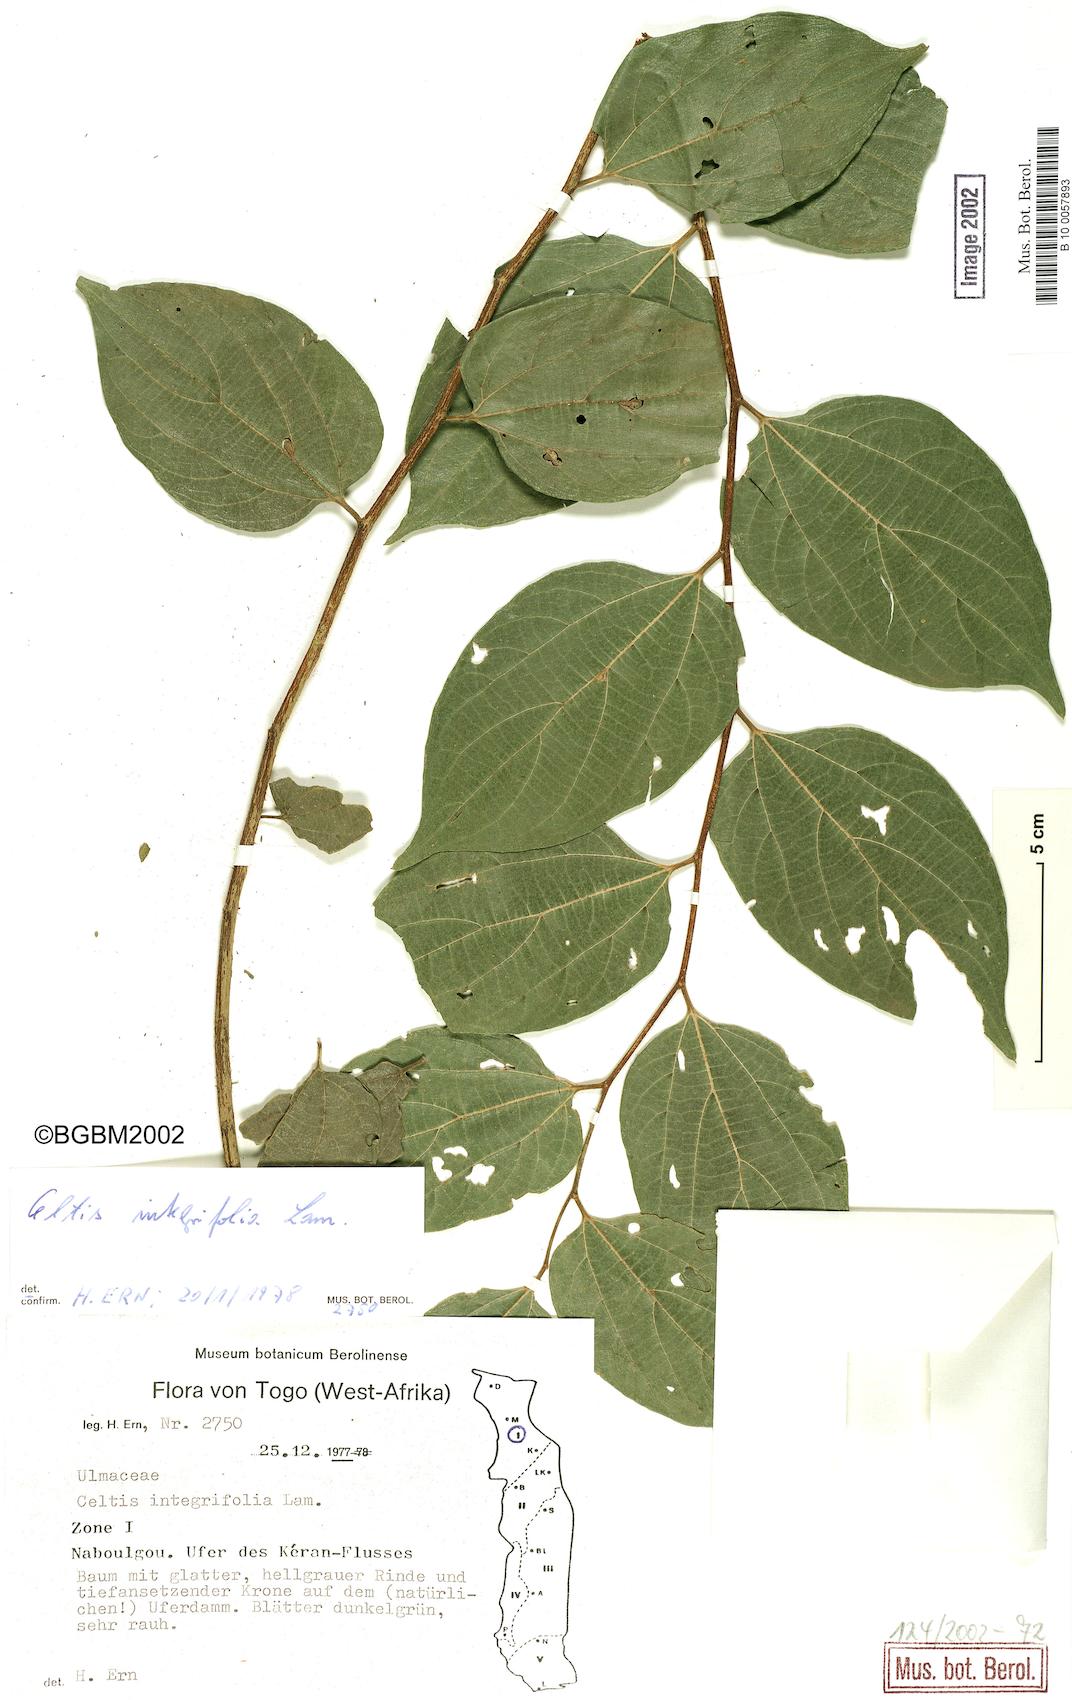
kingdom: Plantae
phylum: Tracheophyta
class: Magnoliopsida
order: Rosales
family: Cannabaceae
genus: Celtis
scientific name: Celtis toka
